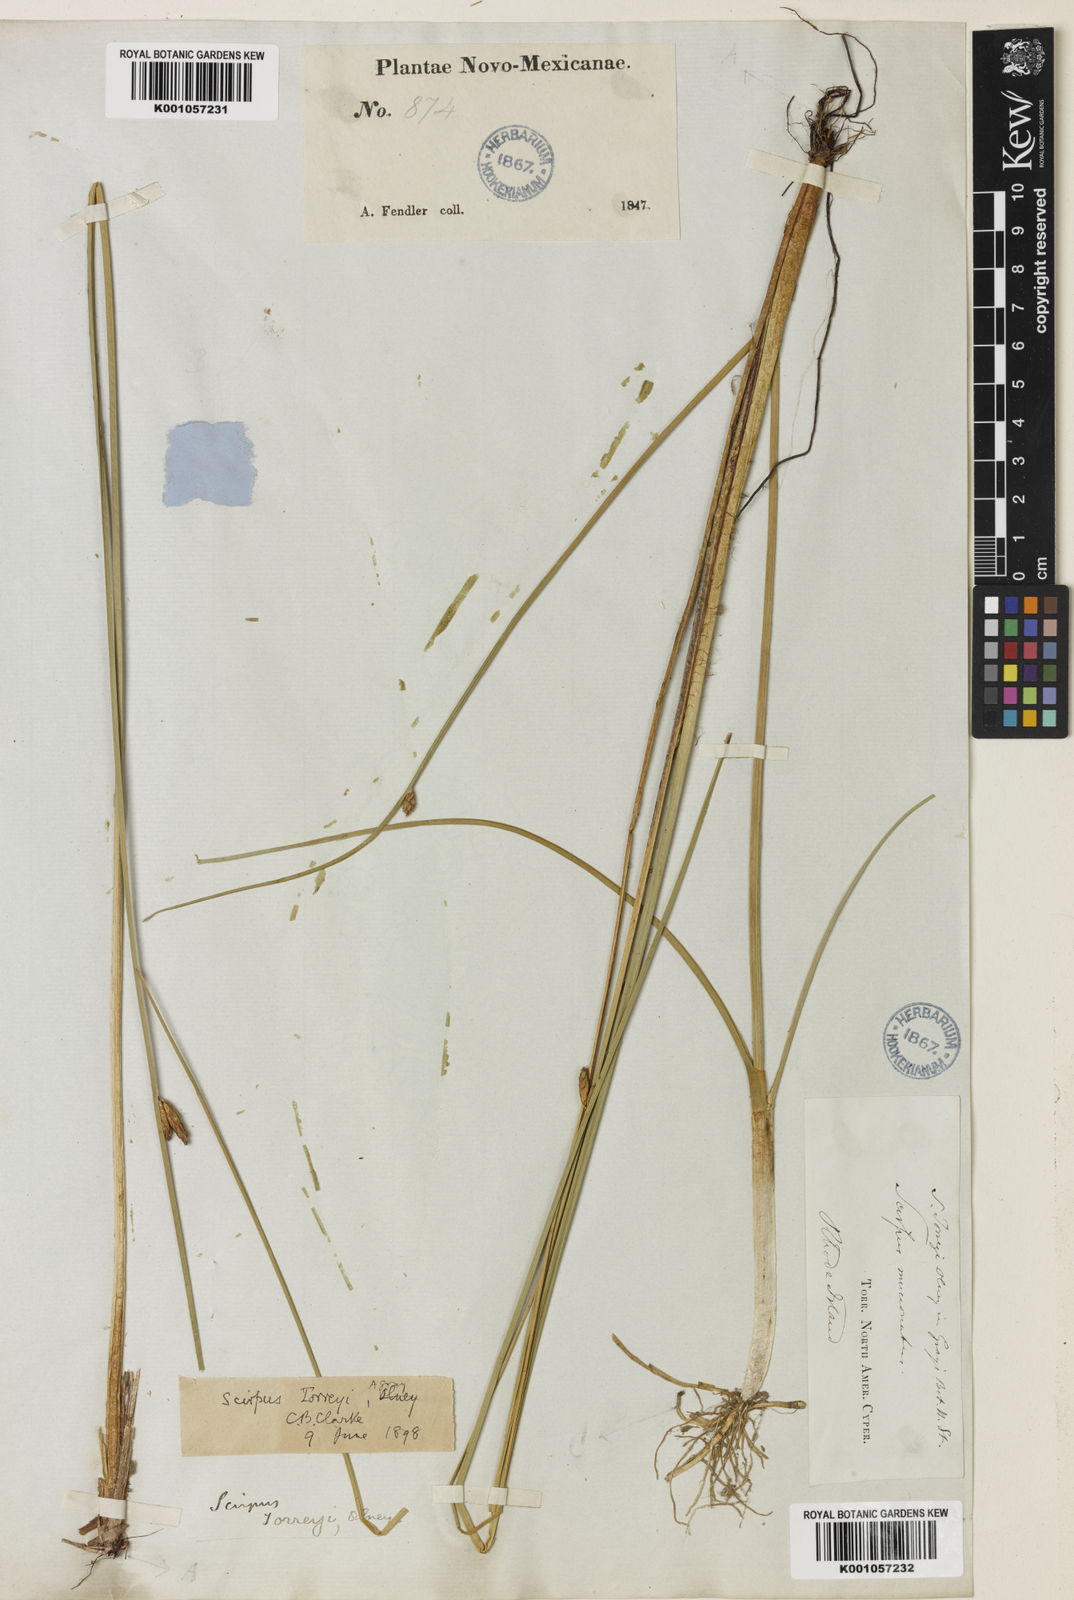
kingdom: Plantae
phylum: Tracheophyta
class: Liliopsida
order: Poales
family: Cyperaceae
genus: Schoenoplectus
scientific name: Schoenoplectus torreyi
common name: Torrey's bulrush
